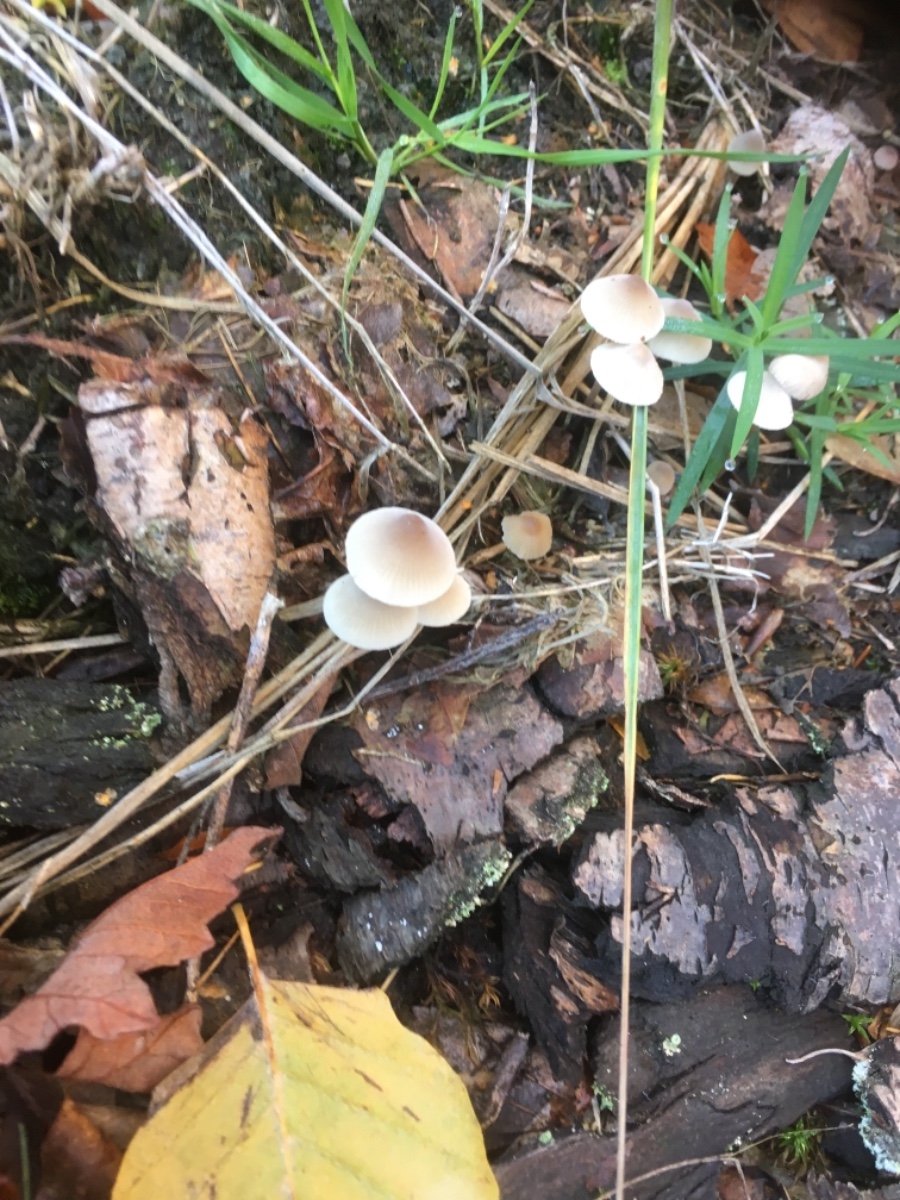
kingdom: Fungi
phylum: Basidiomycota
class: Agaricomycetes
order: Agaricales
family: Mycenaceae
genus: Mycena
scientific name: Mycena metata
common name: rødlig huesvamp
